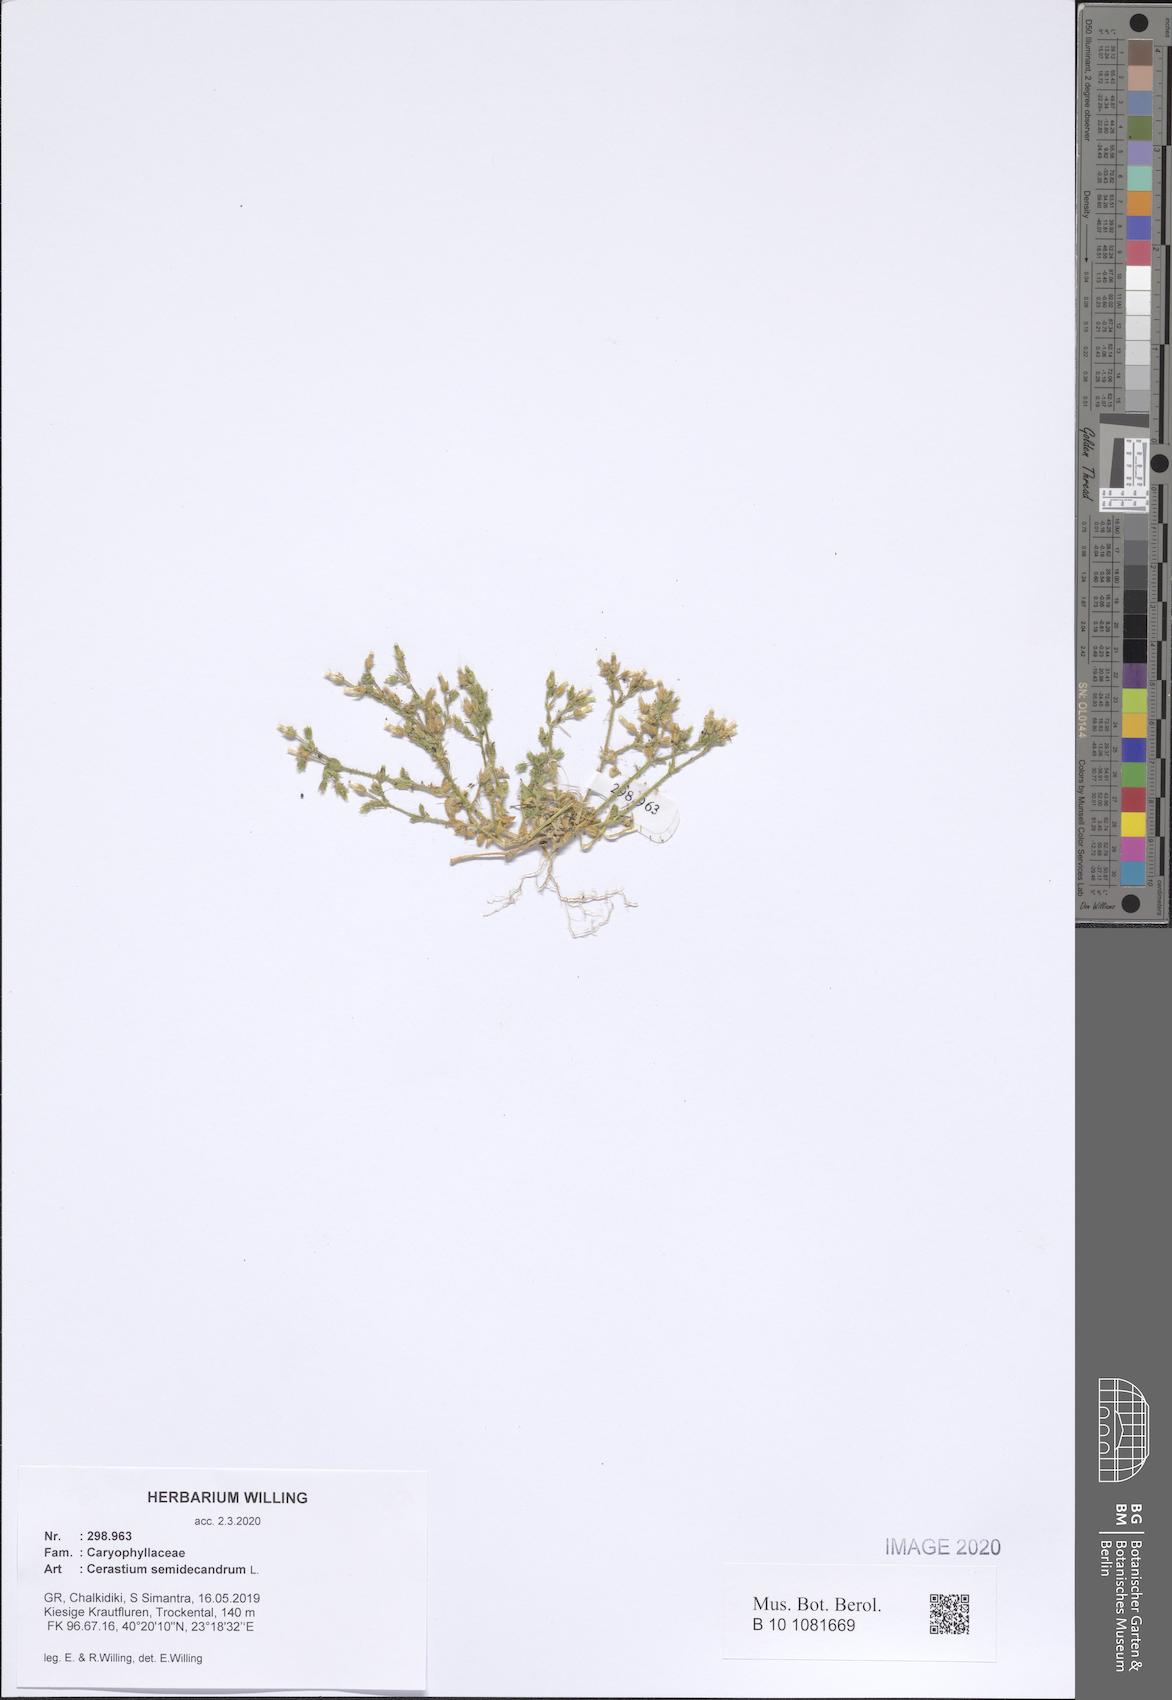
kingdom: Plantae
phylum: Tracheophyta
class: Magnoliopsida
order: Caryophyllales
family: Caryophyllaceae
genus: Cerastium
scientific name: Cerastium semidecandrum
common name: Little mouse-ear
